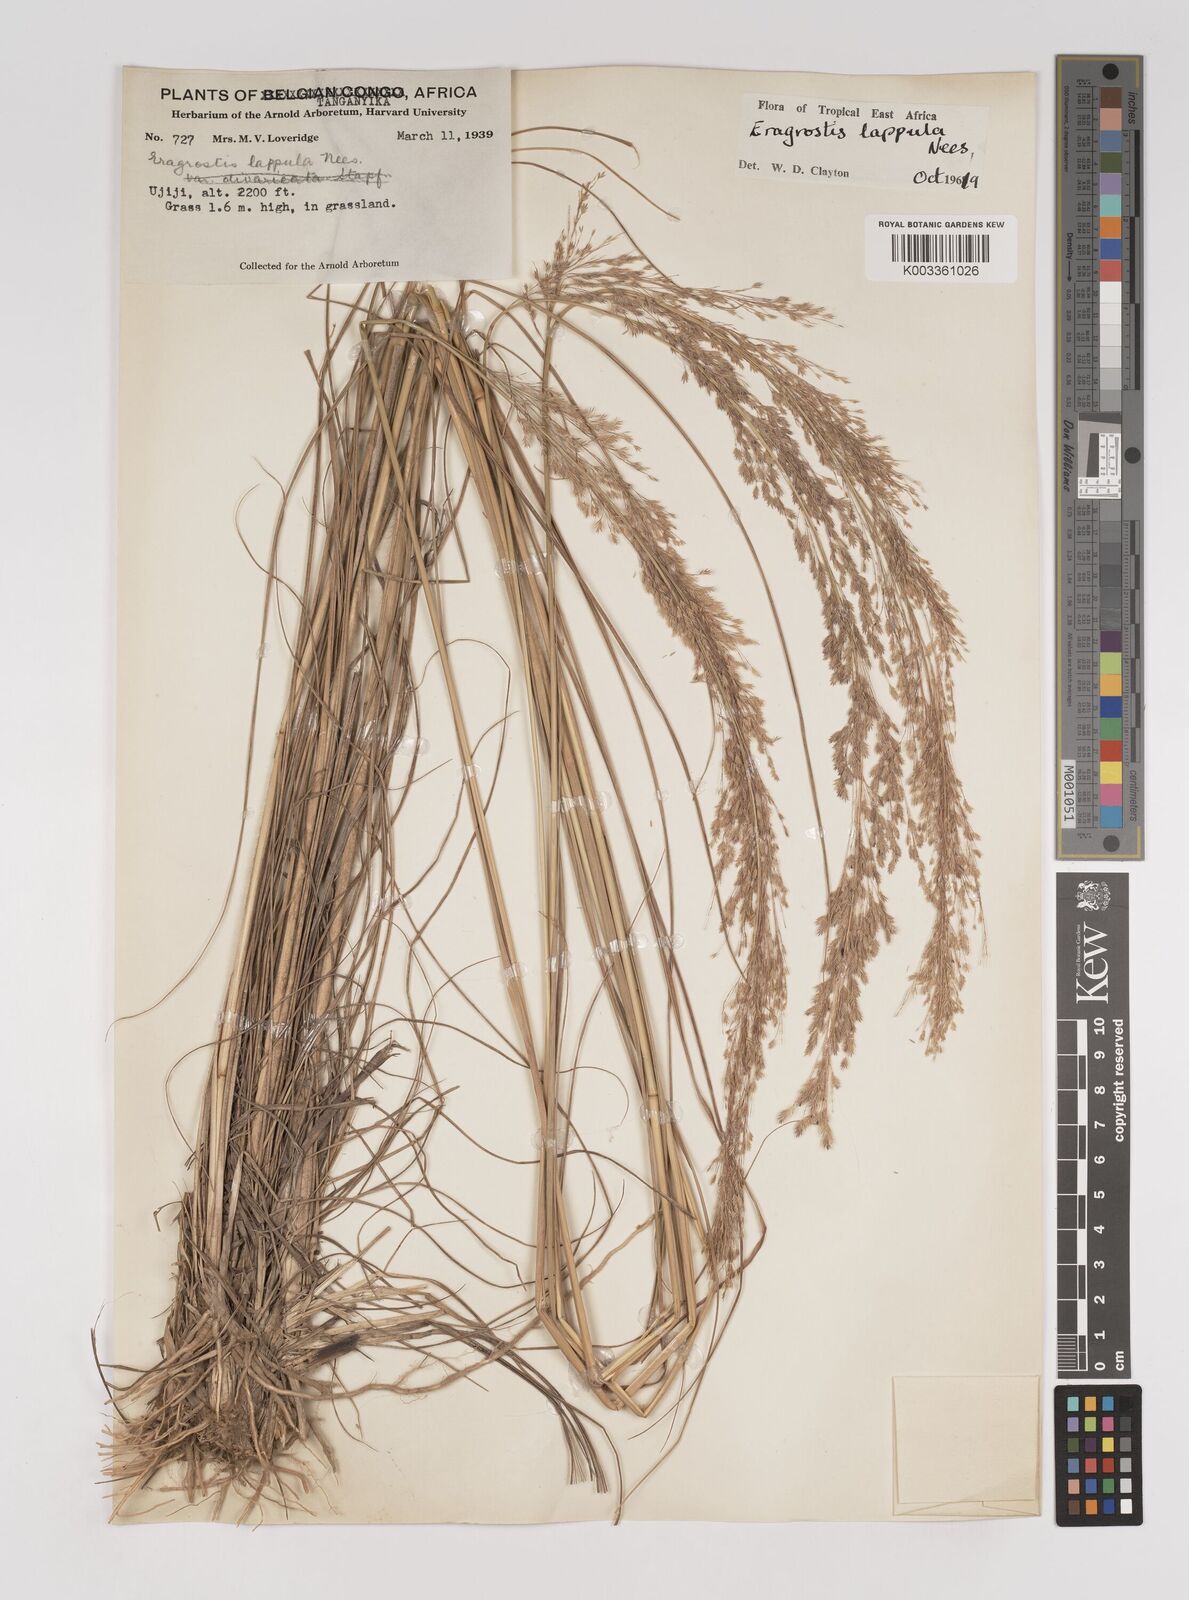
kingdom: Plantae
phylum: Tracheophyta
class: Liliopsida
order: Poales
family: Poaceae
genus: Eragrostis
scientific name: Eragrostis lappula
